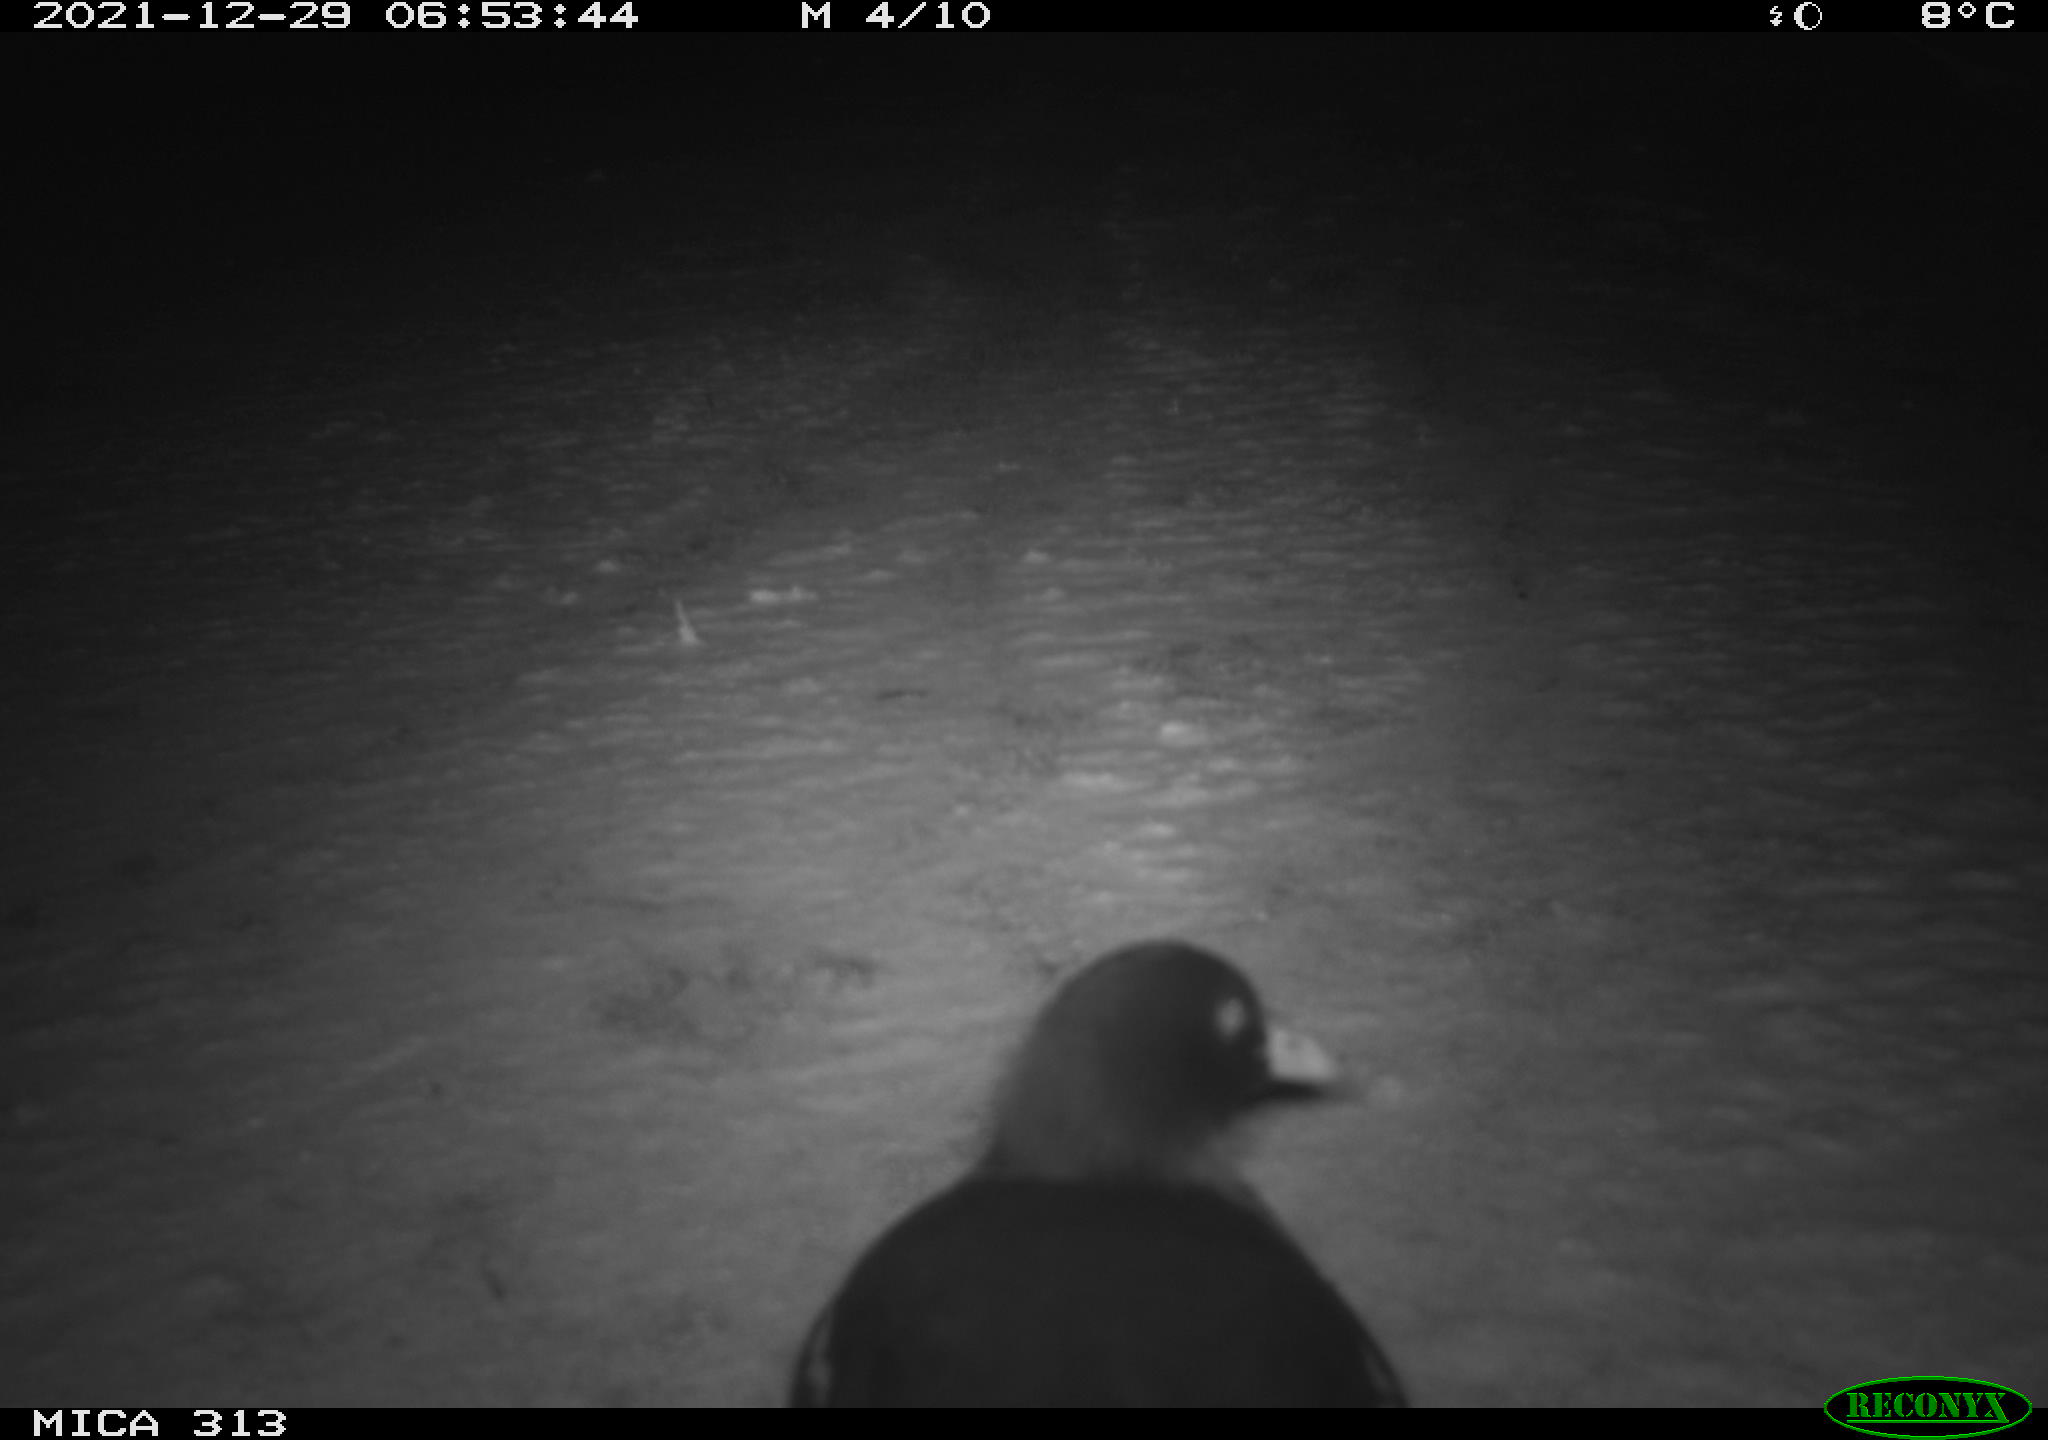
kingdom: Animalia
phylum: Chordata
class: Aves
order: Gruiformes
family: Rallidae
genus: Fulica
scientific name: Fulica atra
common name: Eurasian coot
